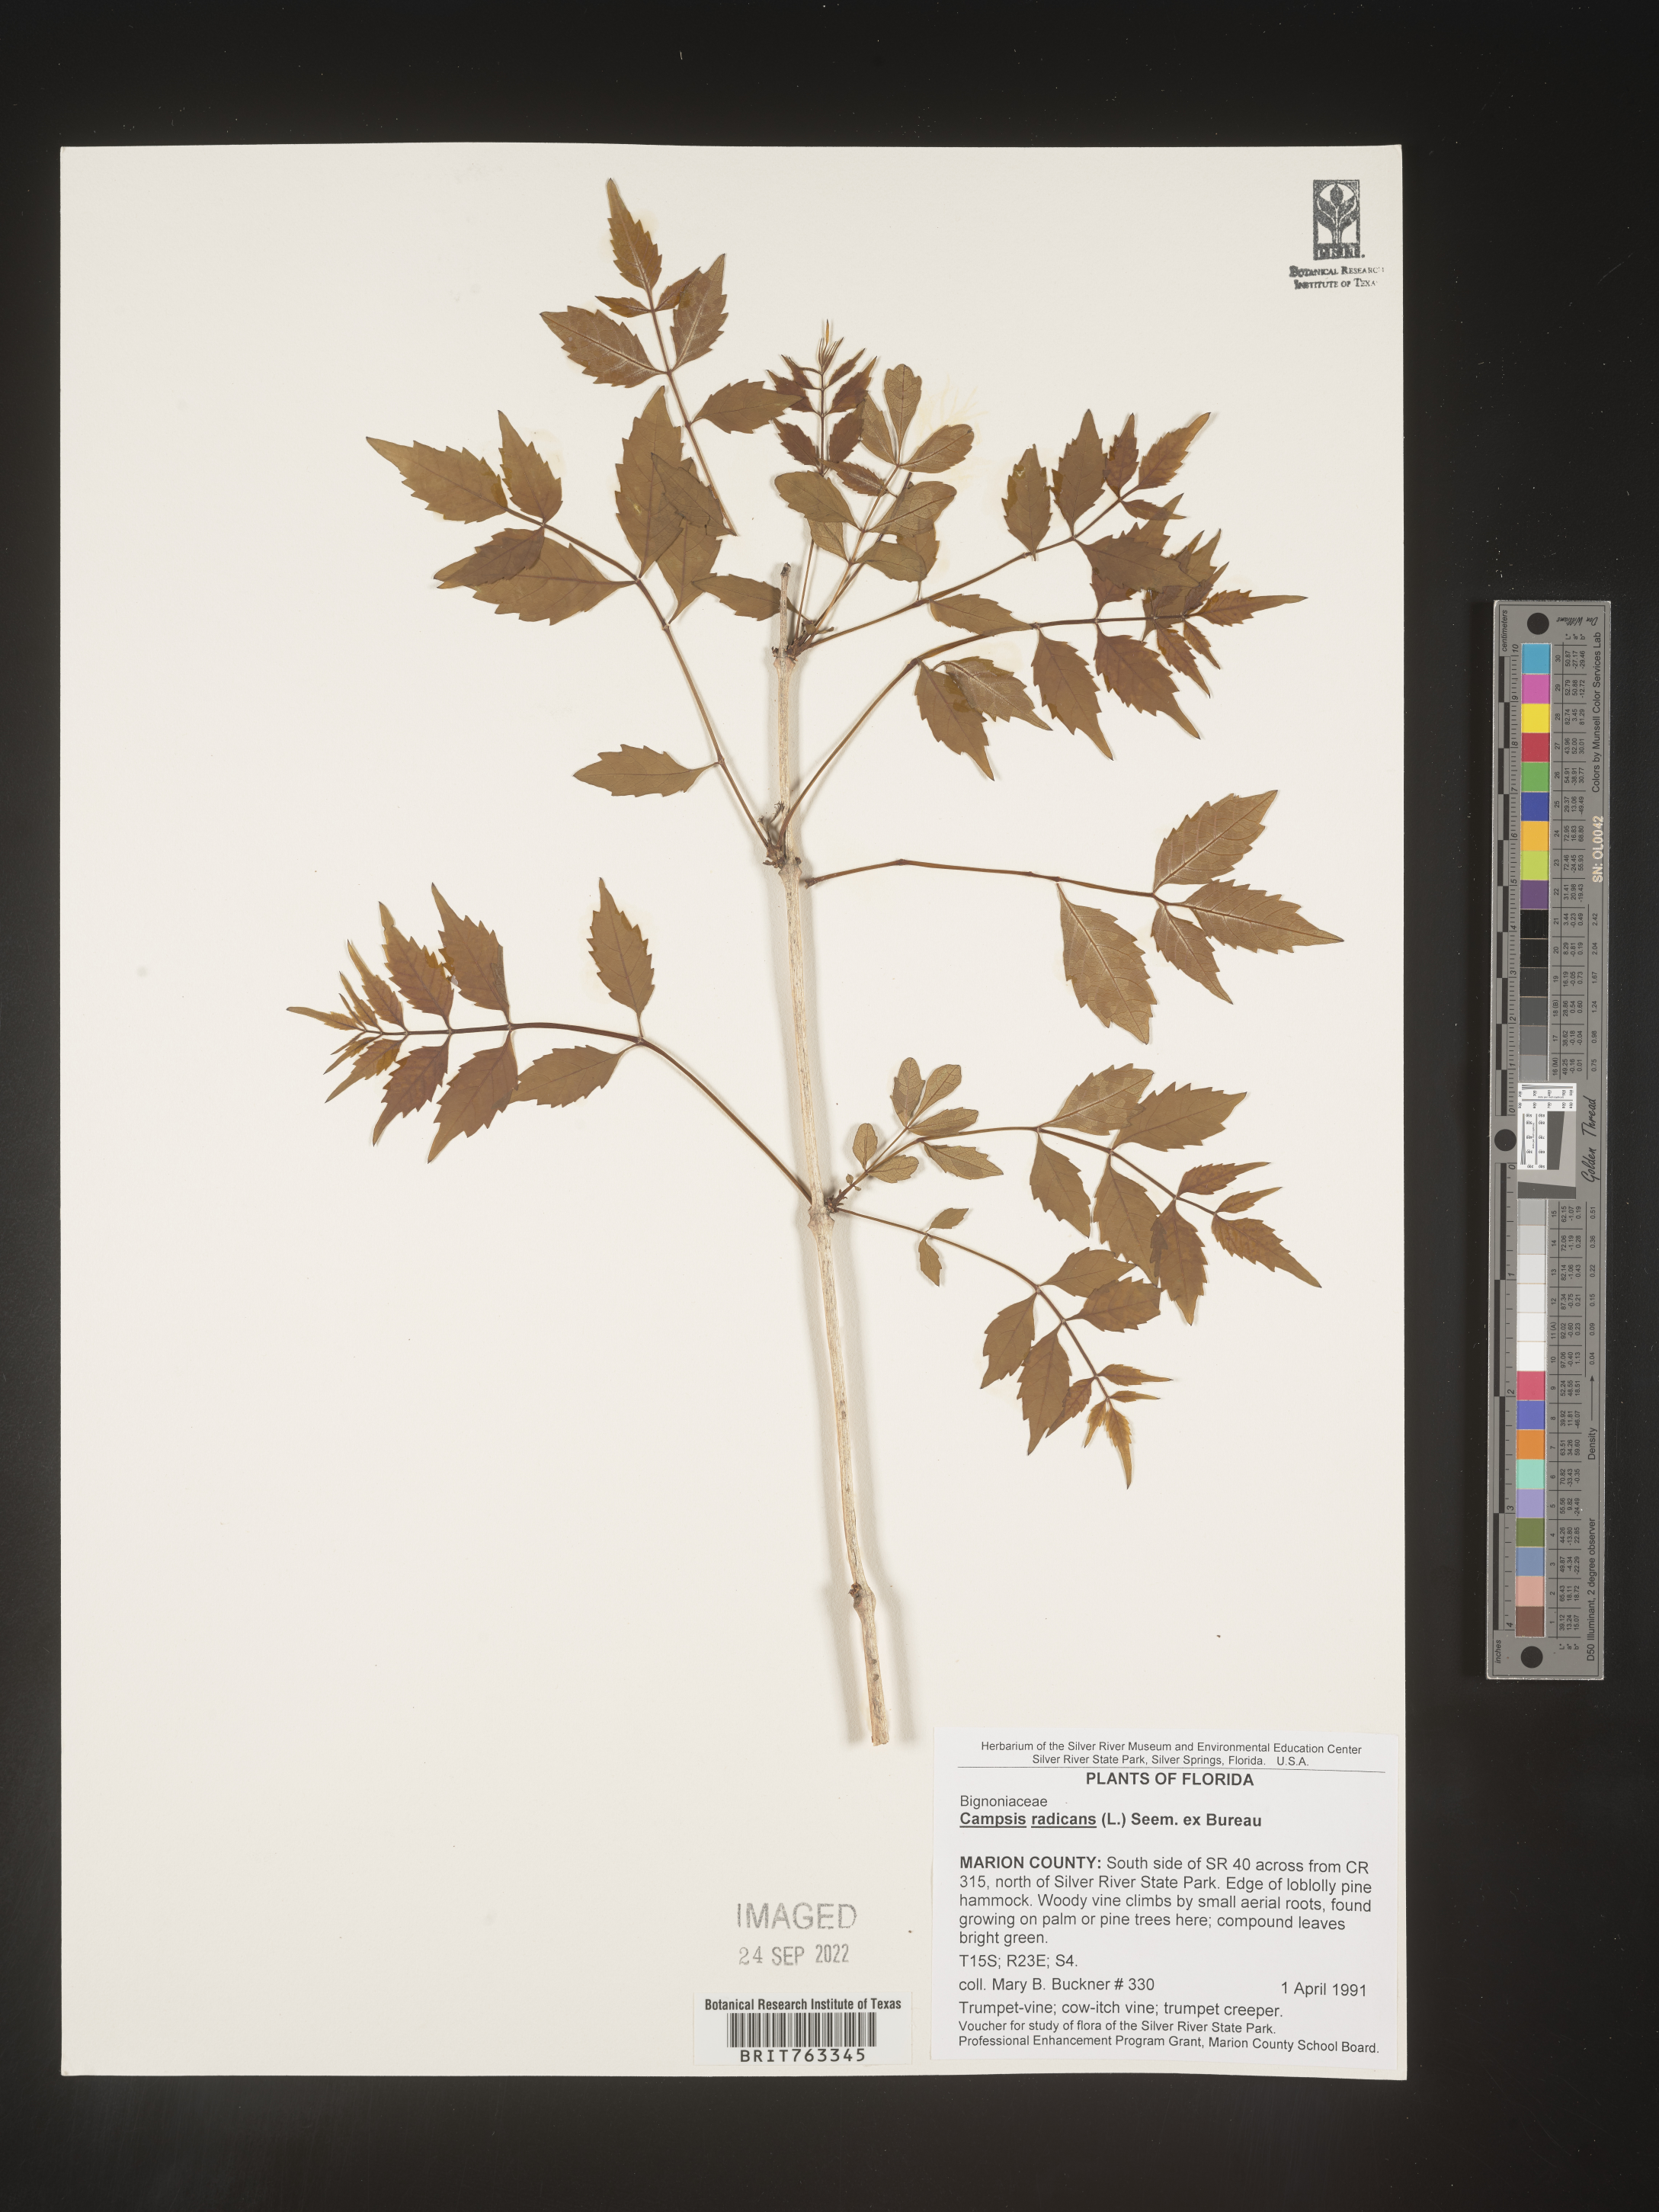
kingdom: Plantae
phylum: Tracheophyta
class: Magnoliopsida
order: Lamiales
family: Bignoniaceae
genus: Campsis
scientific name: Campsis radicans
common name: Trumpet-creeper
